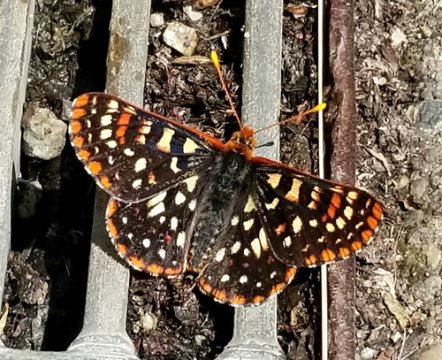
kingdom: Animalia
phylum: Arthropoda
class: Insecta
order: Lepidoptera
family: Nymphalidae
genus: Occidryas
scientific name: Occidryas colon
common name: Snowberry Checkerspot
